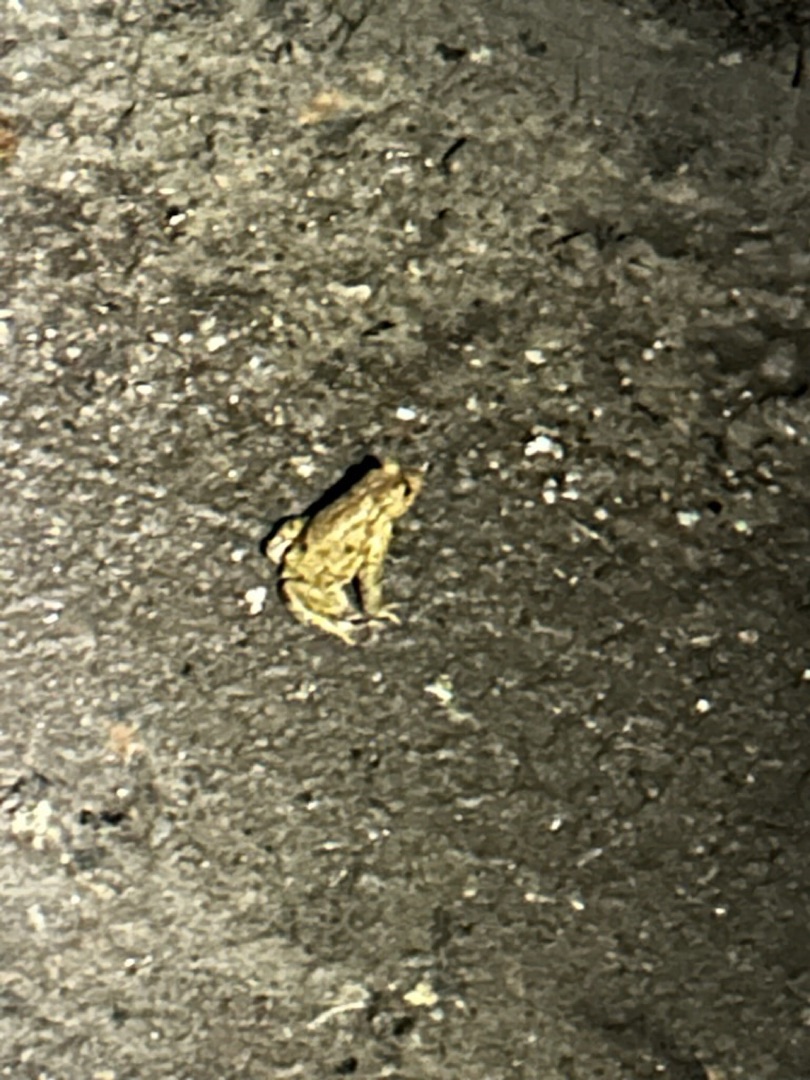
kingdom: Animalia
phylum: Chordata
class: Amphibia
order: Anura
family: Bufonidae
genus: Bufo
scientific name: Bufo bufo
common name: Skrubtudse
